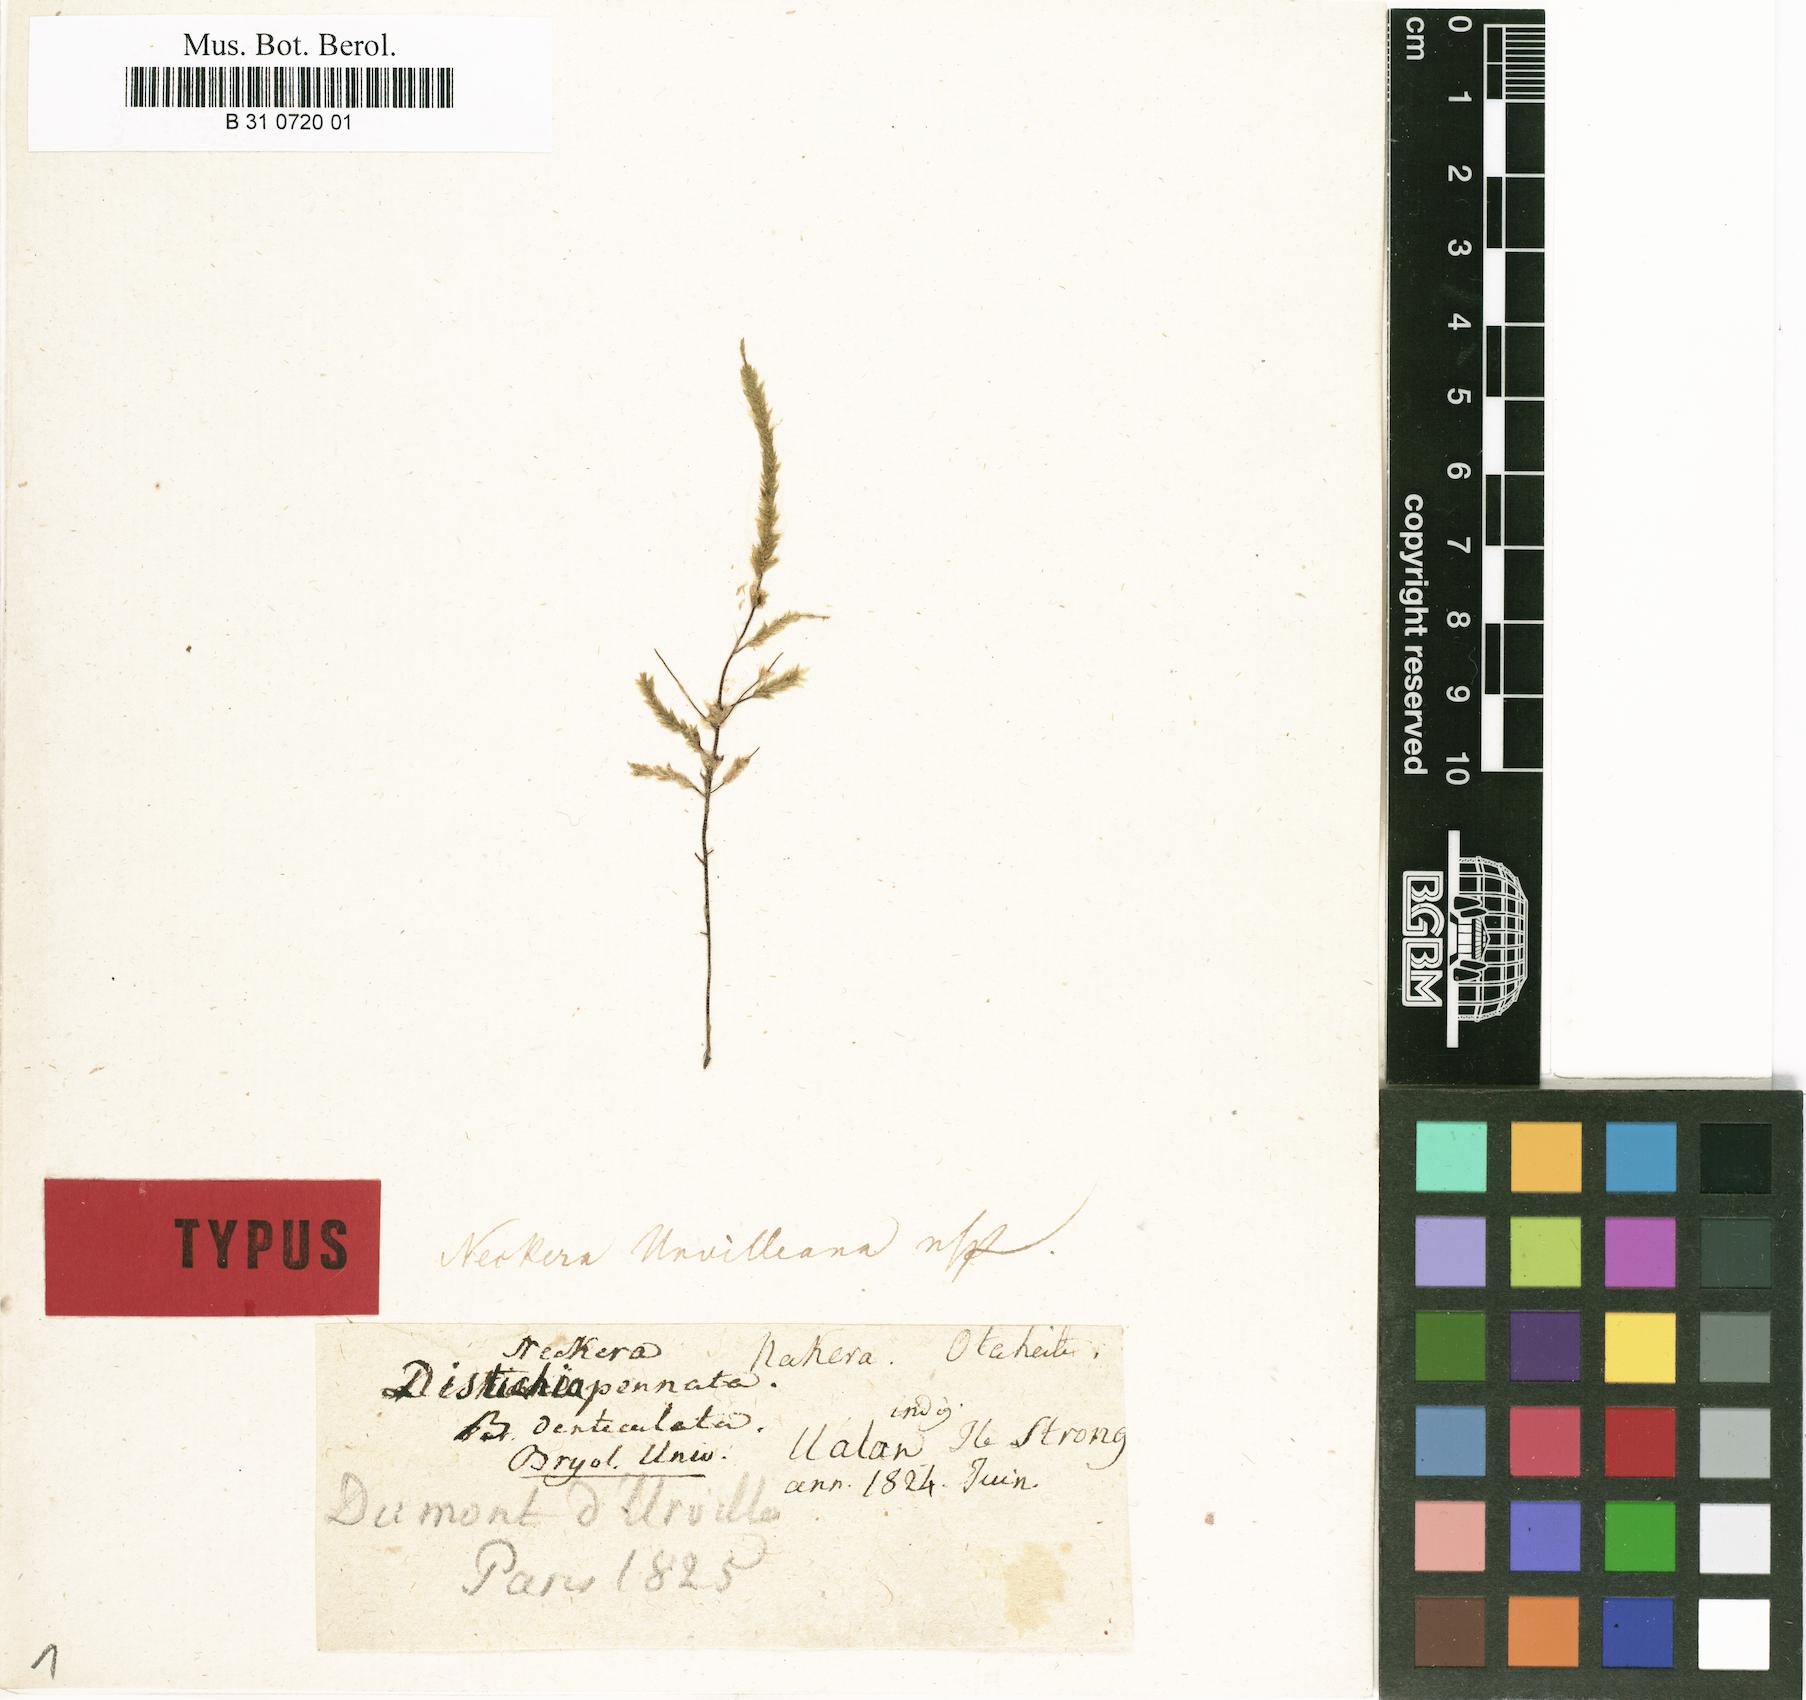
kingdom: Plantae
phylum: Bryophyta
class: Bryopsida
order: Hypnales
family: Neckeraceae
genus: Neckera
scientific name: Neckera pennata
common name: Feathery neckera
